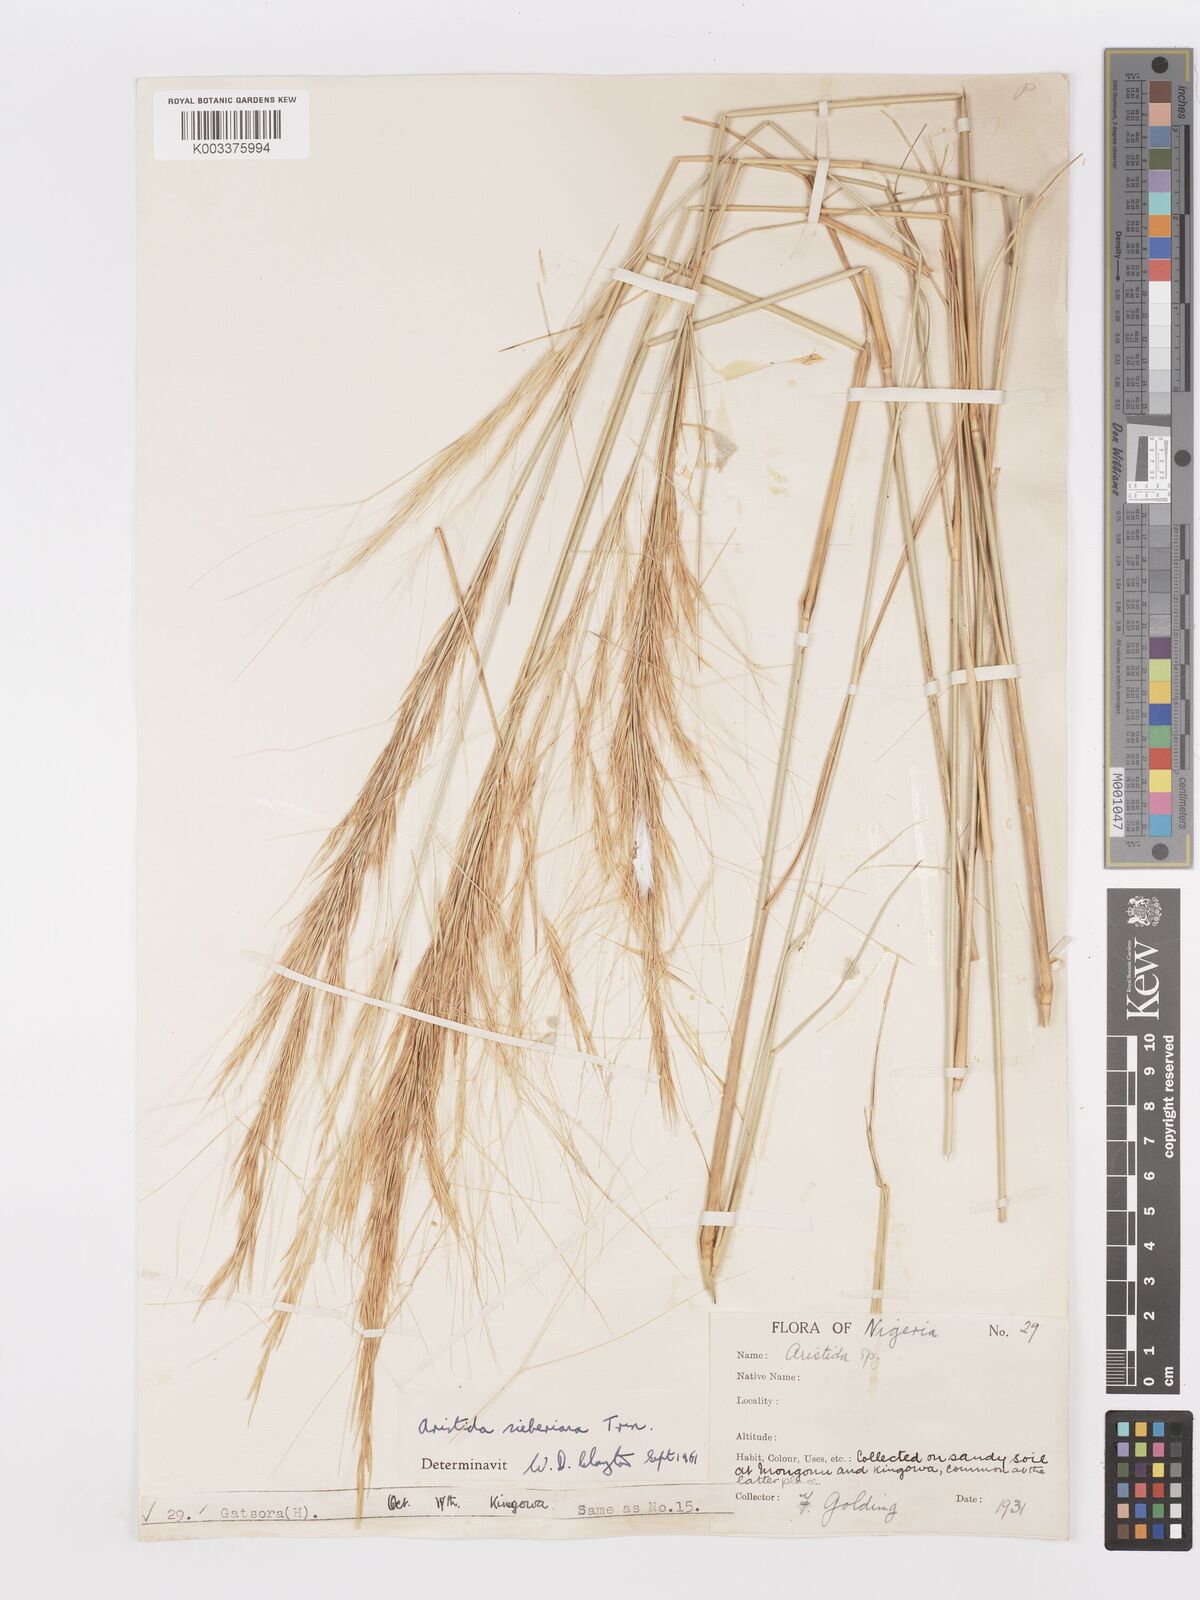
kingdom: Plantae
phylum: Tracheophyta
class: Liliopsida
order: Poales
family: Poaceae
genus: Aristida
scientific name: Aristida sieberiana
